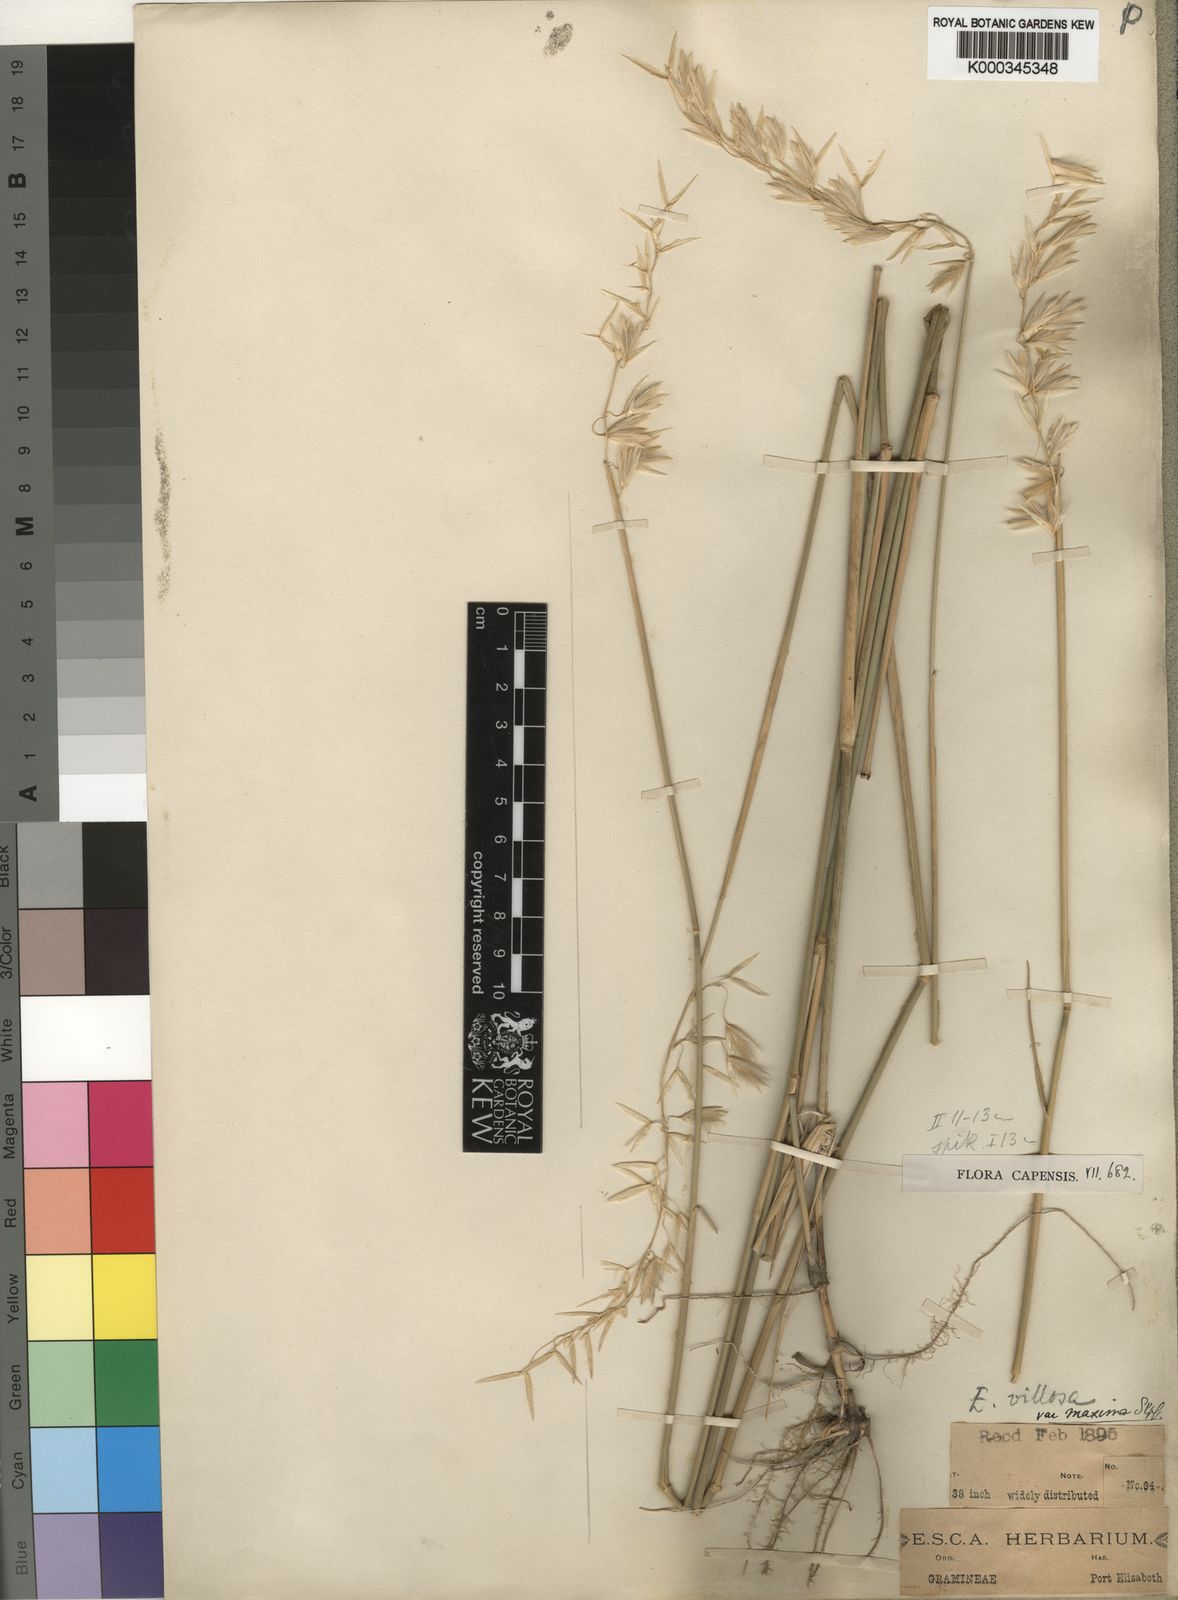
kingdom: Plantae
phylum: Tracheophyta
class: Liliopsida
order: Poales
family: Poaceae
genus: Ehrharta
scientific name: Ehrharta villosa
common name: Pyp grass
